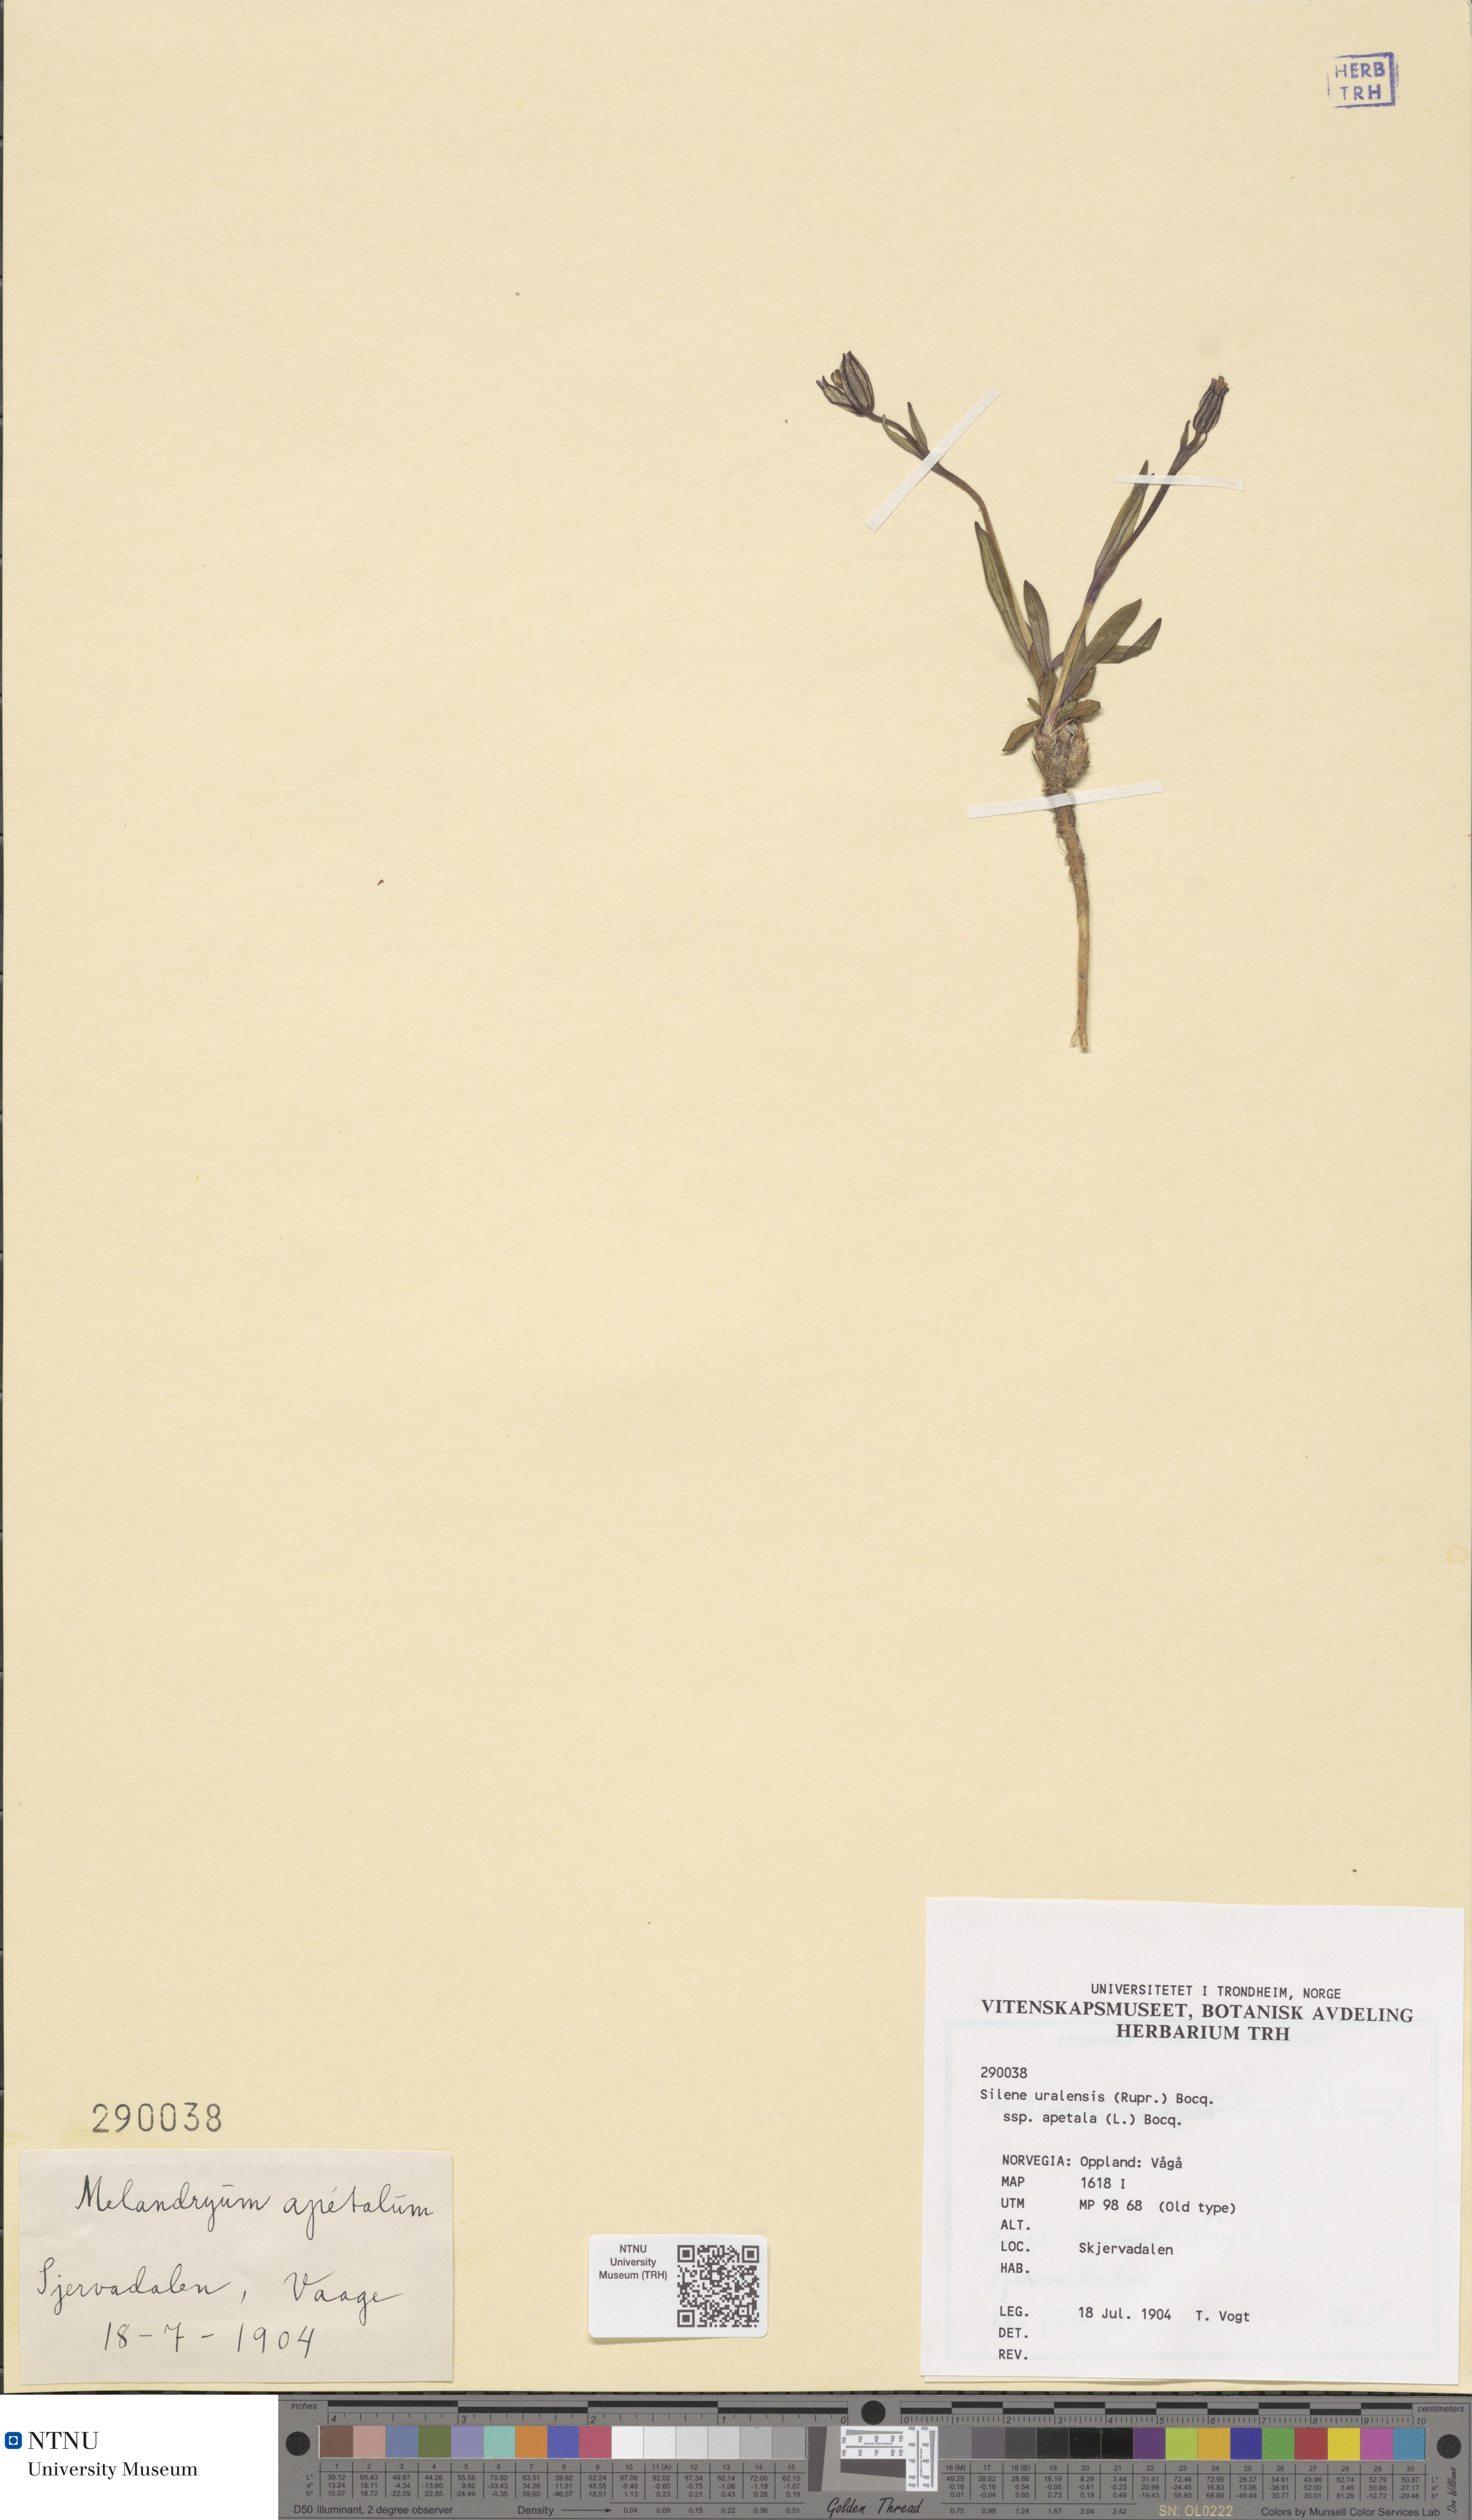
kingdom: Plantae
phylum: Tracheophyta
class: Magnoliopsida
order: Caryophyllales
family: Caryophyllaceae
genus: Silene
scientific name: Silene wahlbergella
